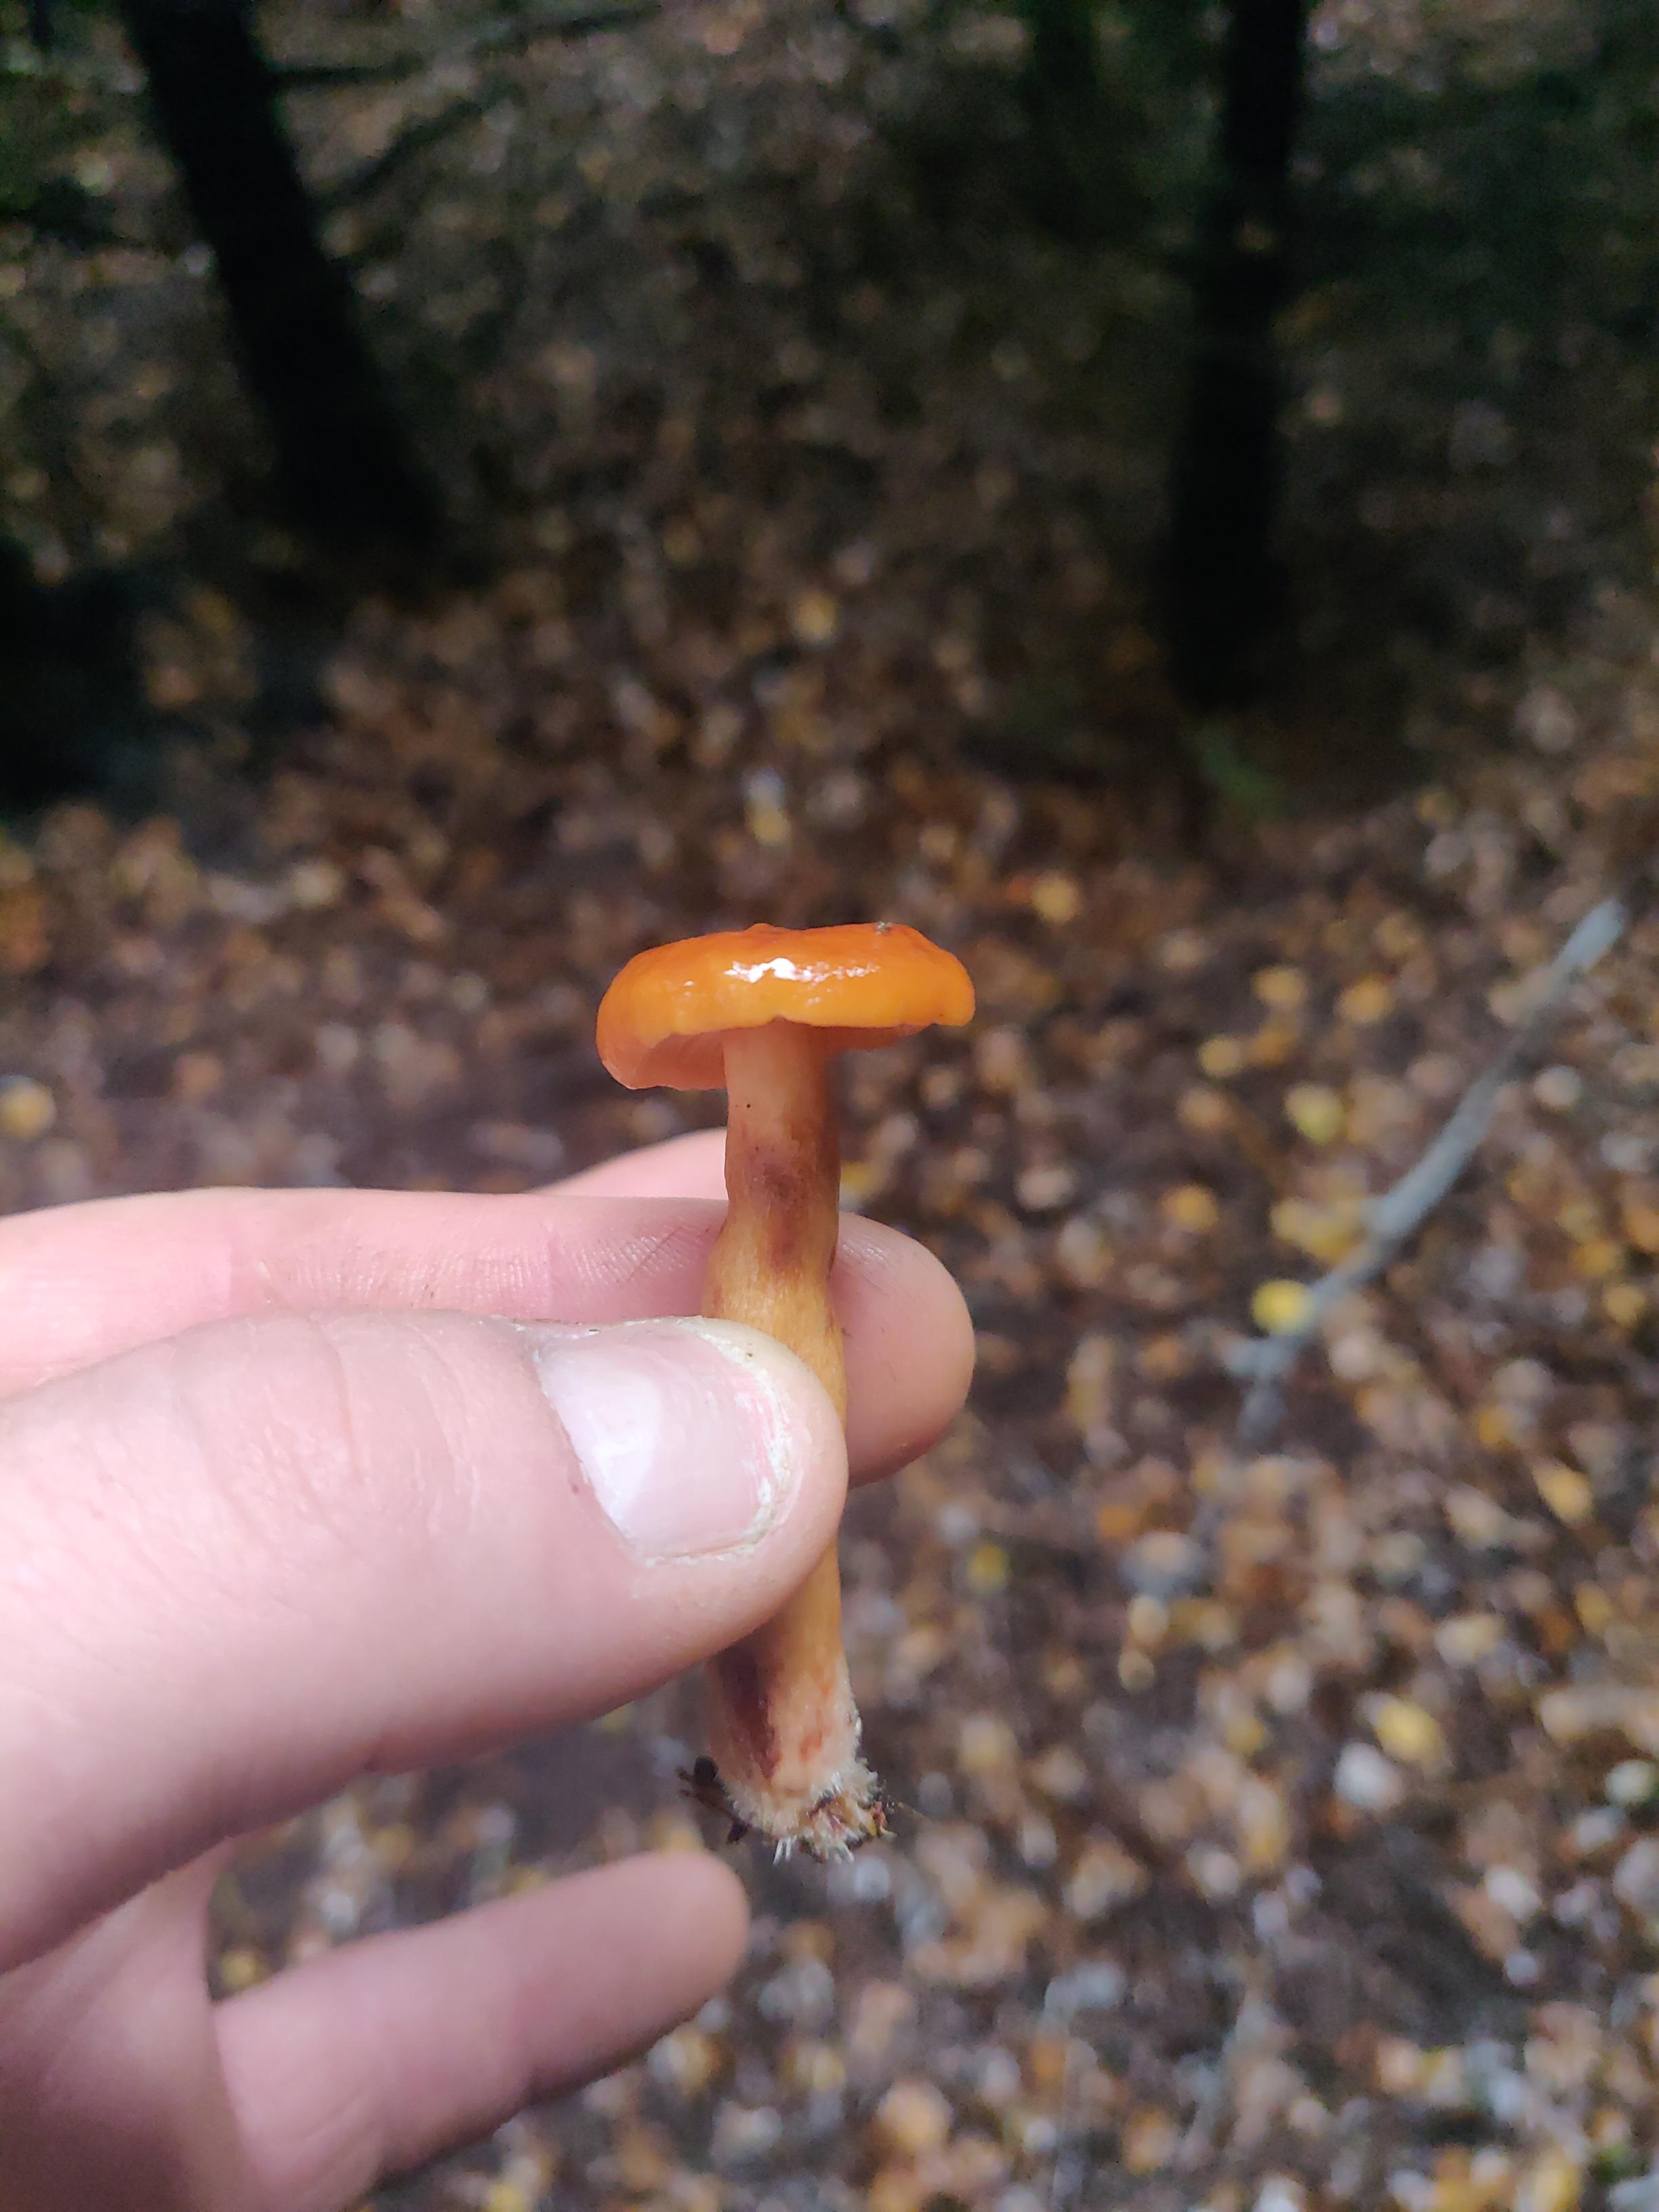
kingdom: Fungi
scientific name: Fungi
